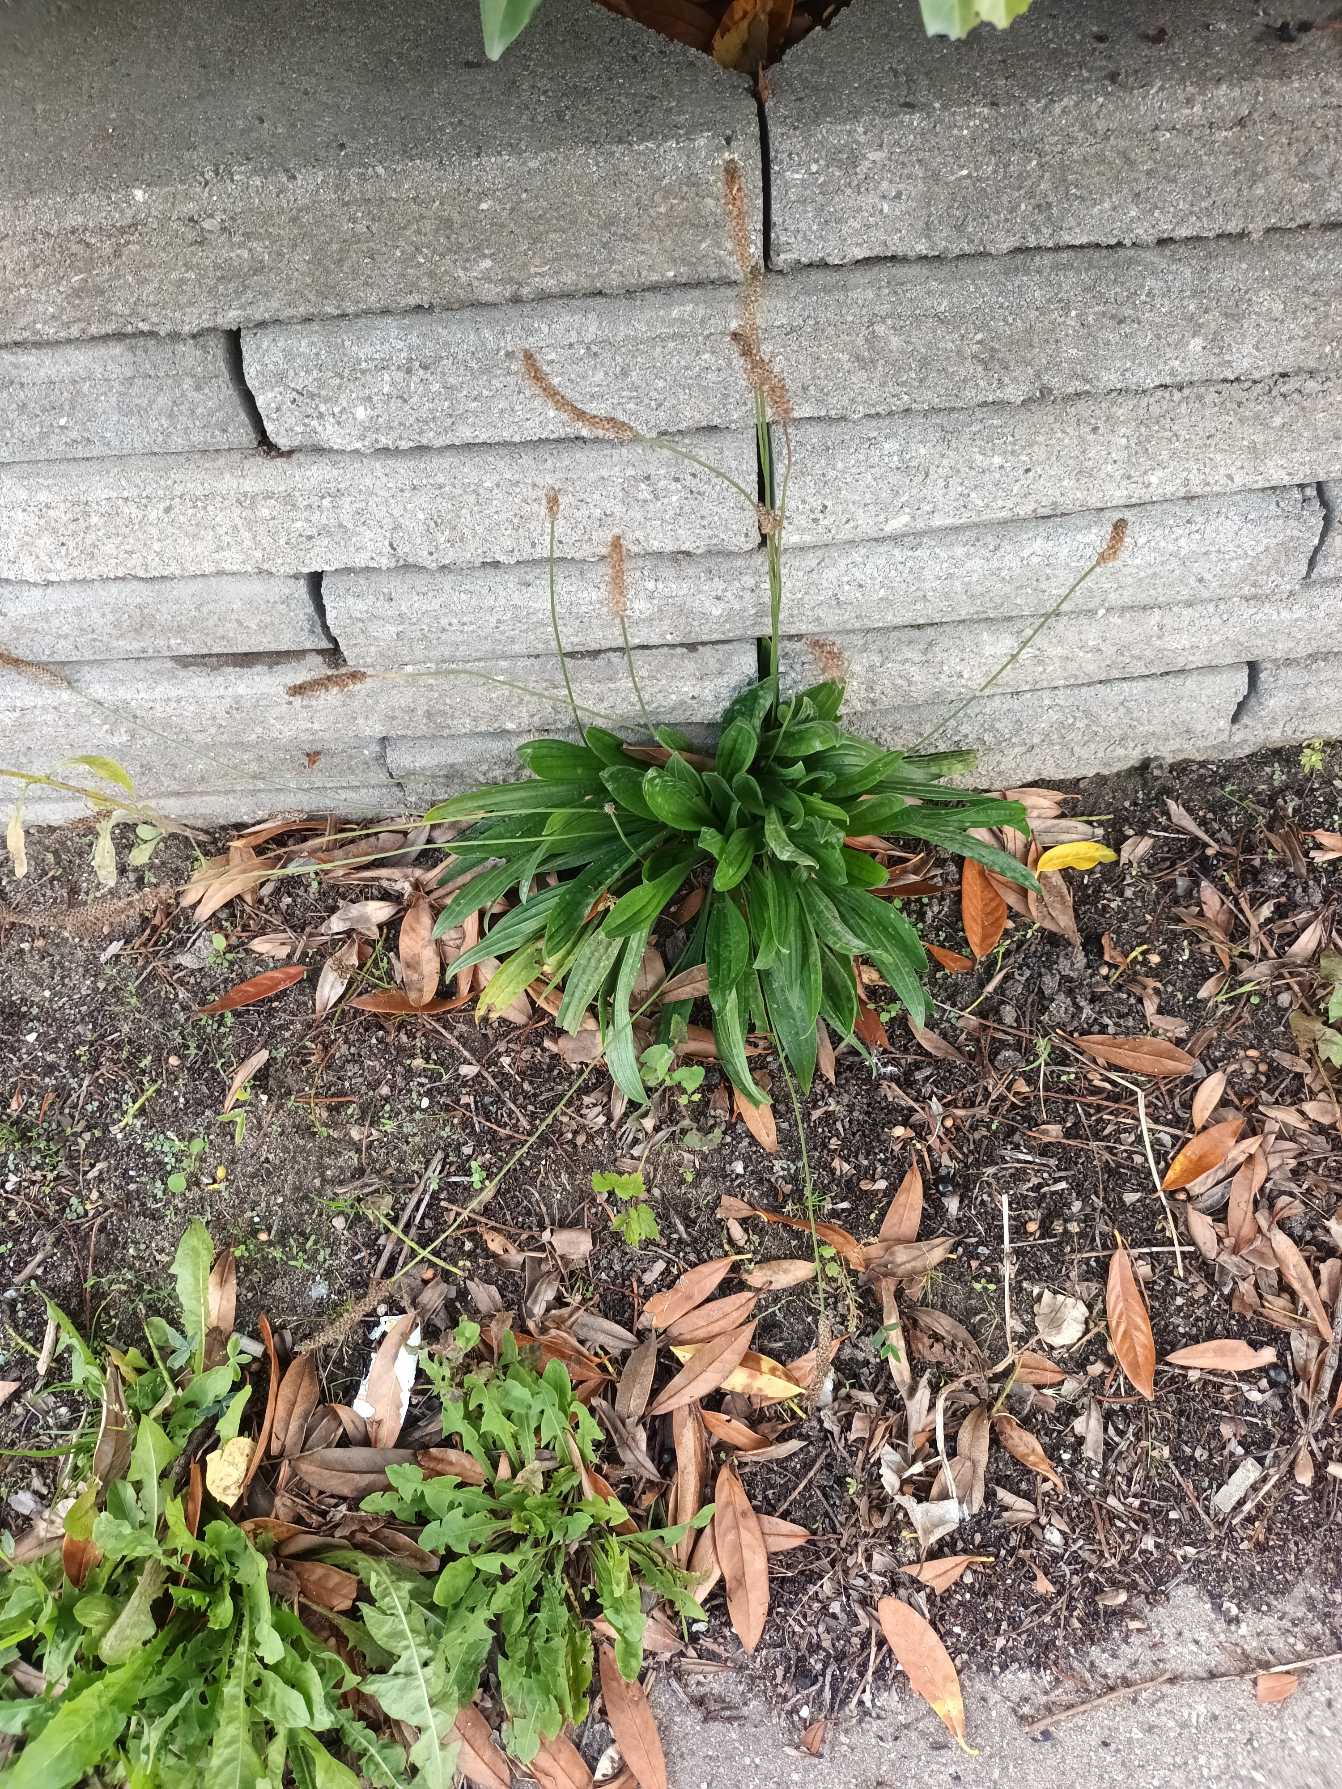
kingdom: Plantae
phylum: Tracheophyta
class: Magnoliopsida
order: Lamiales
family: Plantaginaceae
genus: Plantago
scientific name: Plantago lanceolata
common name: Lancet-vejbred
